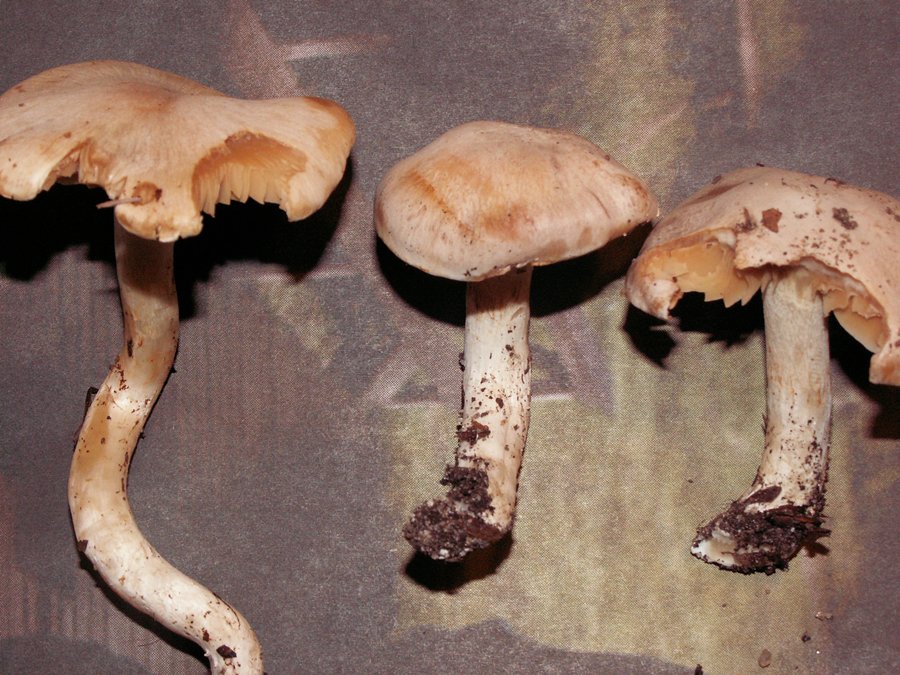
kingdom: Fungi
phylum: Basidiomycota
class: Agaricomycetes
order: Agaricales
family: Cortinariaceae
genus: Thaxterogaster
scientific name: Thaxterogaster leucoluteolus
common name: isabella slørhat
